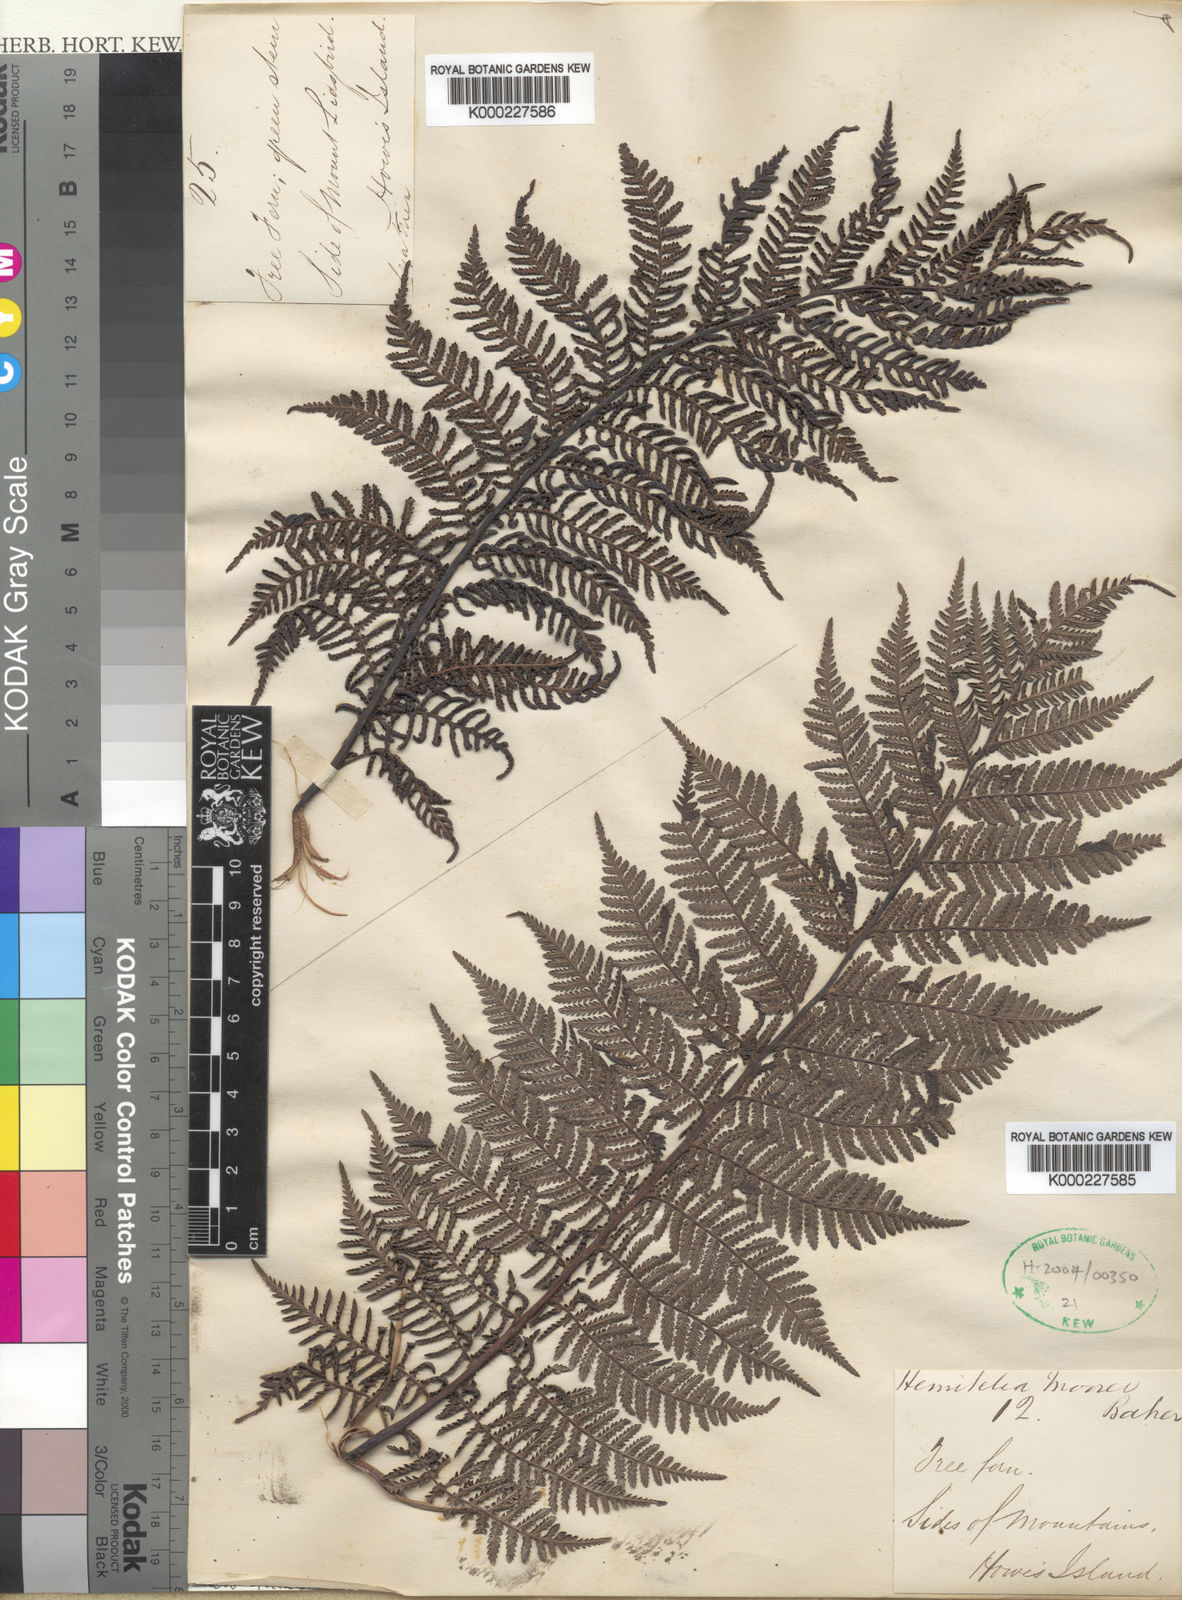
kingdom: Plantae
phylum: Tracheophyta
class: Polypodiopsida
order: Cyatheales
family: Cyatheaceae
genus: Cyathea
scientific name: Cyathea howeana
